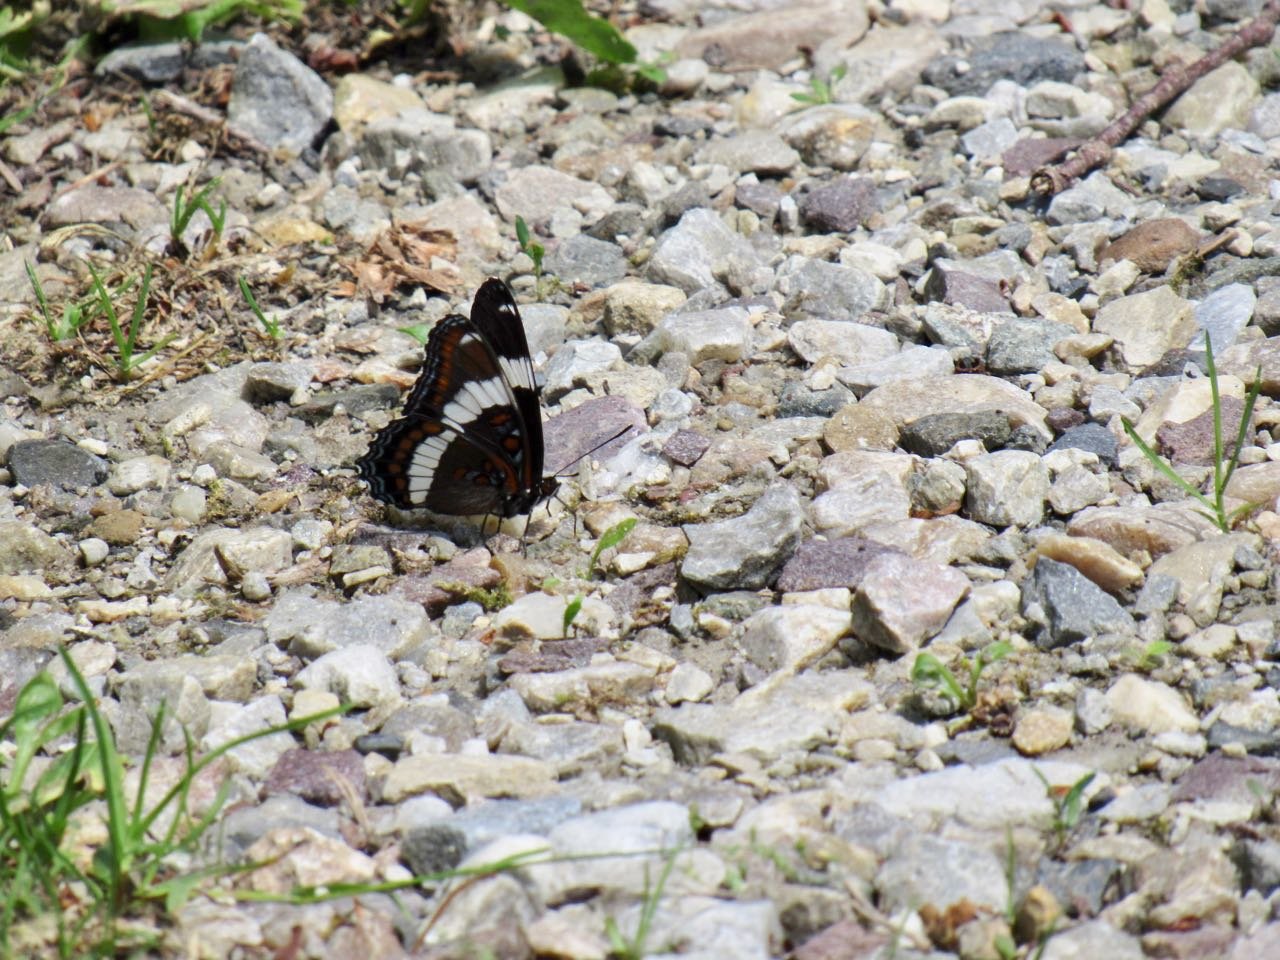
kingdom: Animalia
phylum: Arthropoda
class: Insecta
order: Lepidoptera
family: Nymphalidae
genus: Limenitis
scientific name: Limenitis arthemis
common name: Red-spotted Admiral
